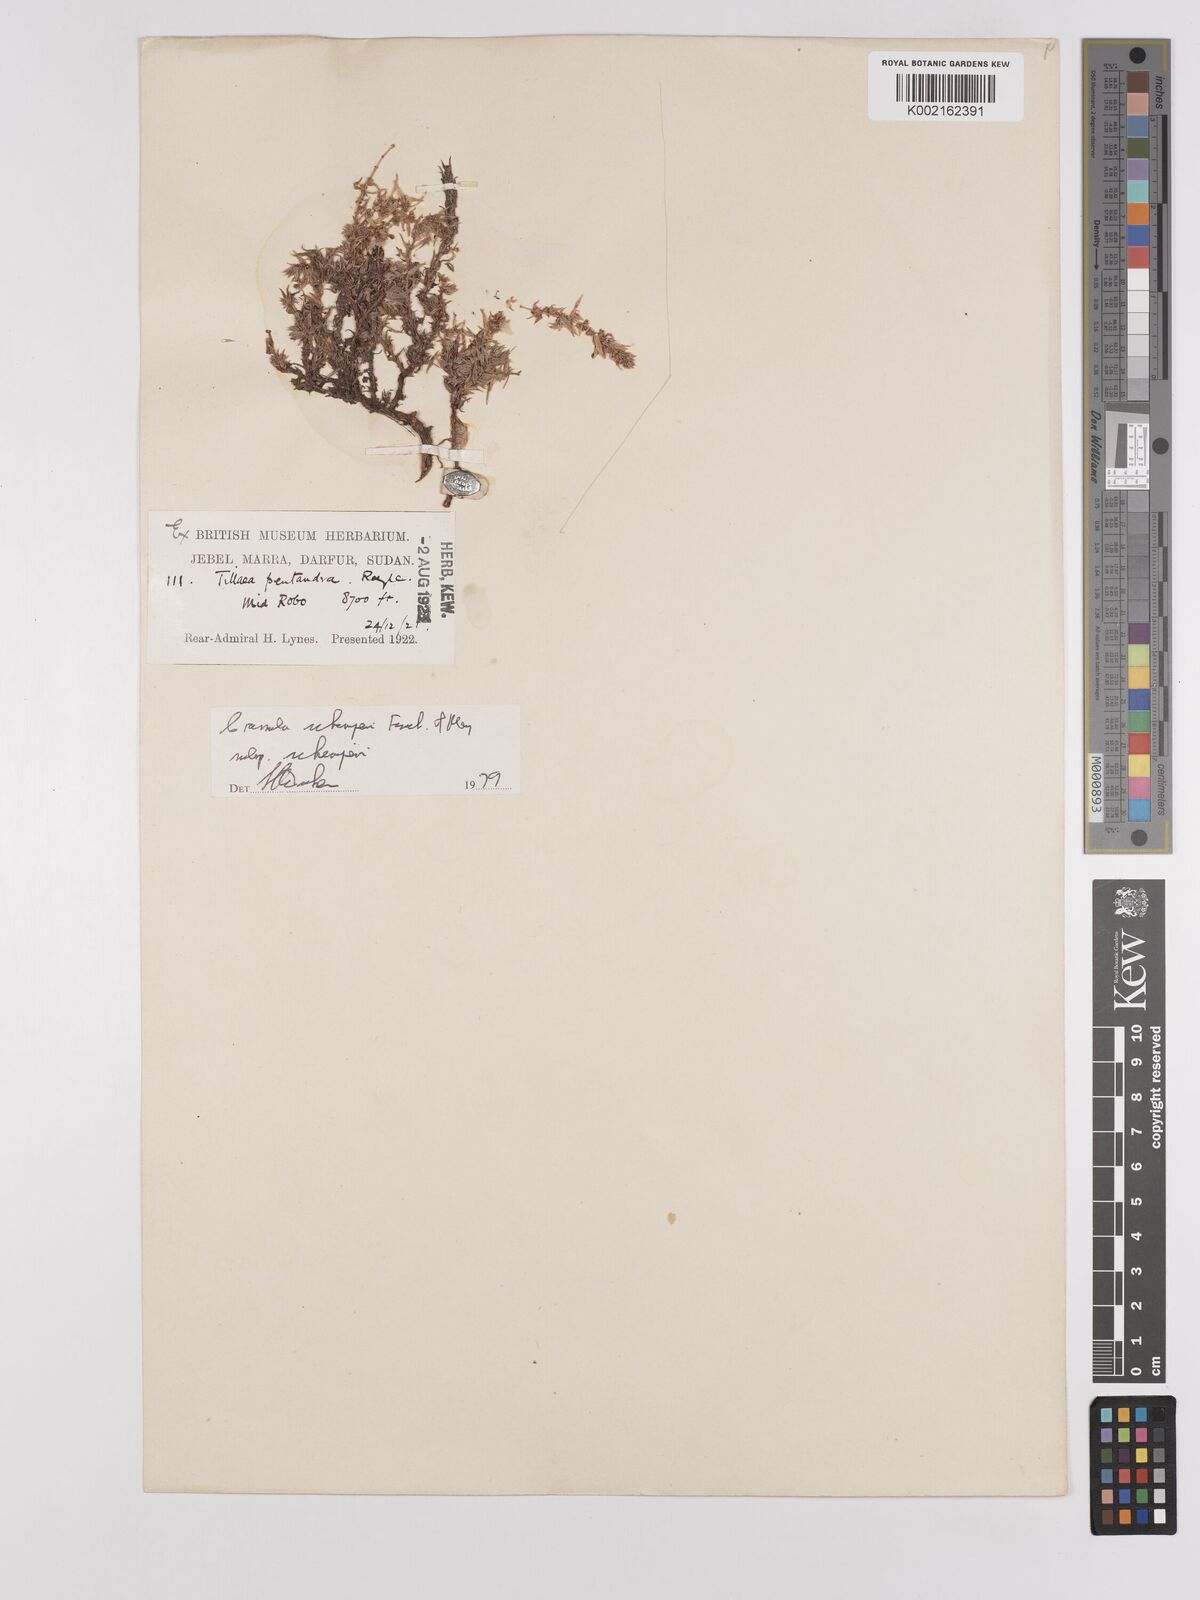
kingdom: Plantae
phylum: Tracheophyta
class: Magnoliopsida
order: Saxifragales
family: Crassulaceae
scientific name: Crassulaceae
